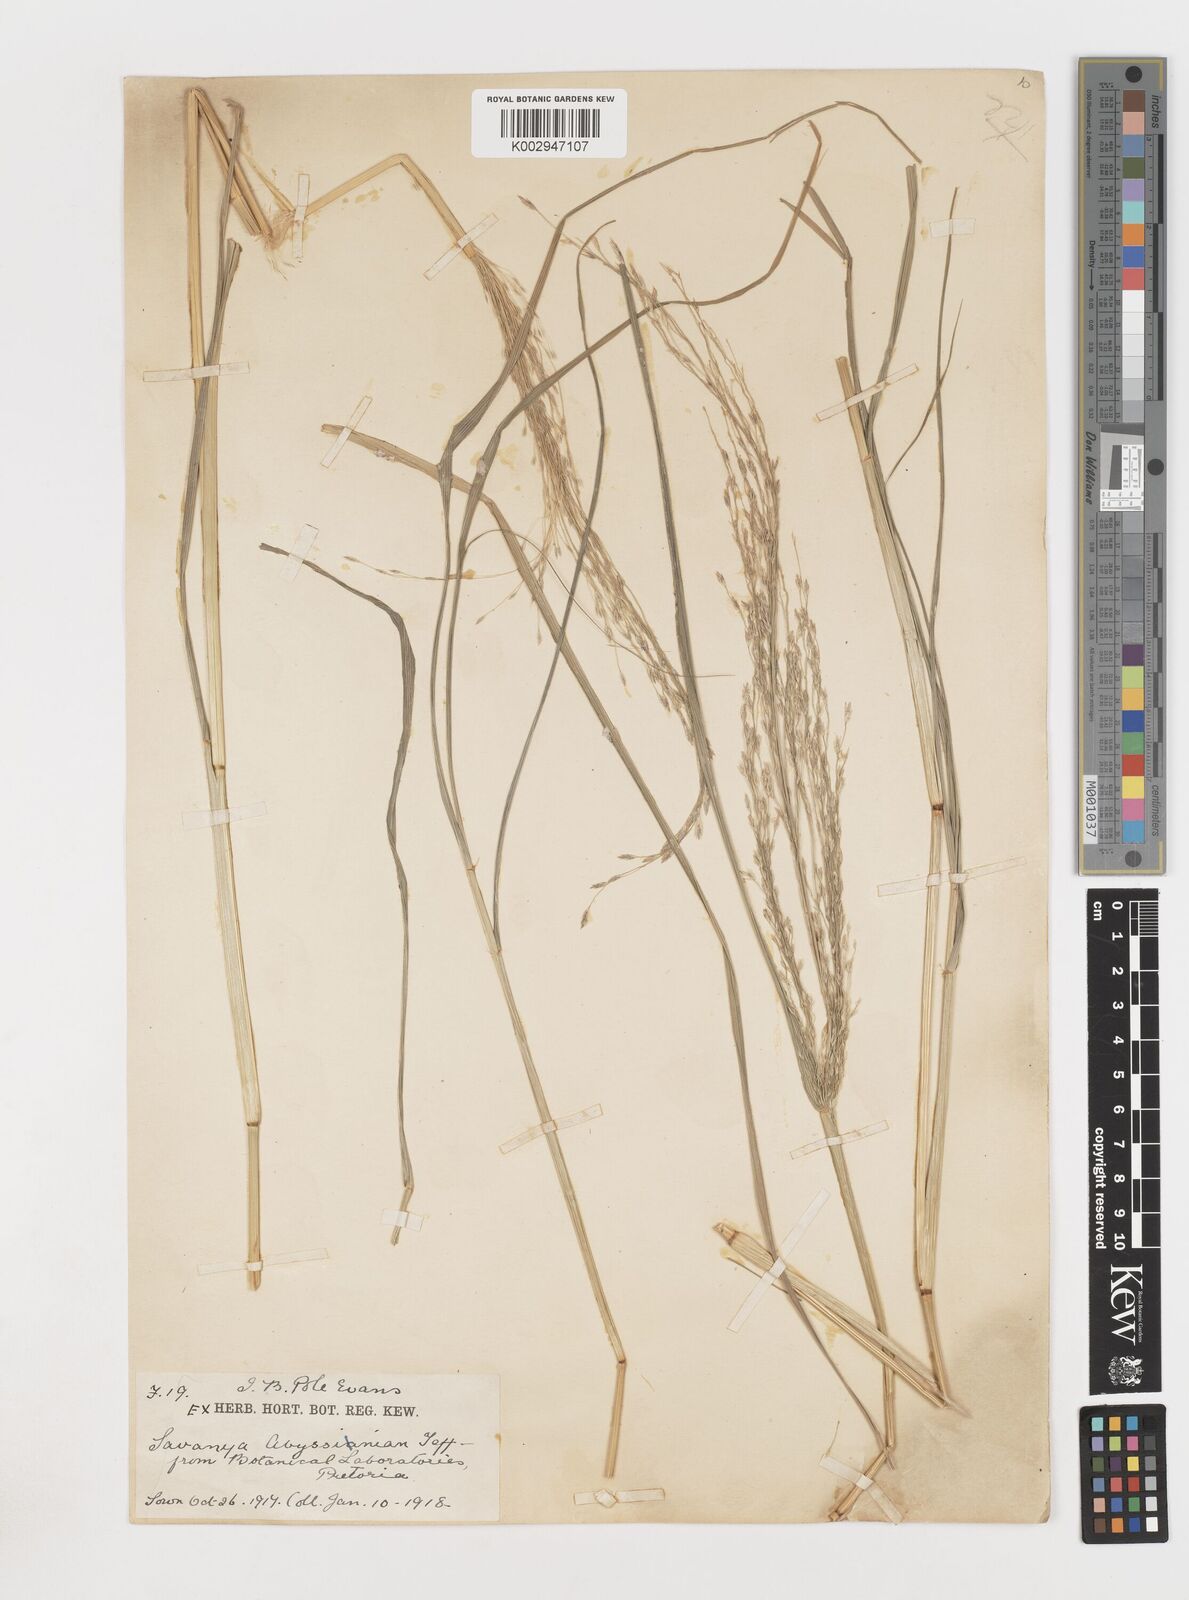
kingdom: Plantae
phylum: Tracheophyta
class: Liliopsida
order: Poales
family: Poaceae
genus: Eragrostis
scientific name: Eragrostis tef
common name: Teff
